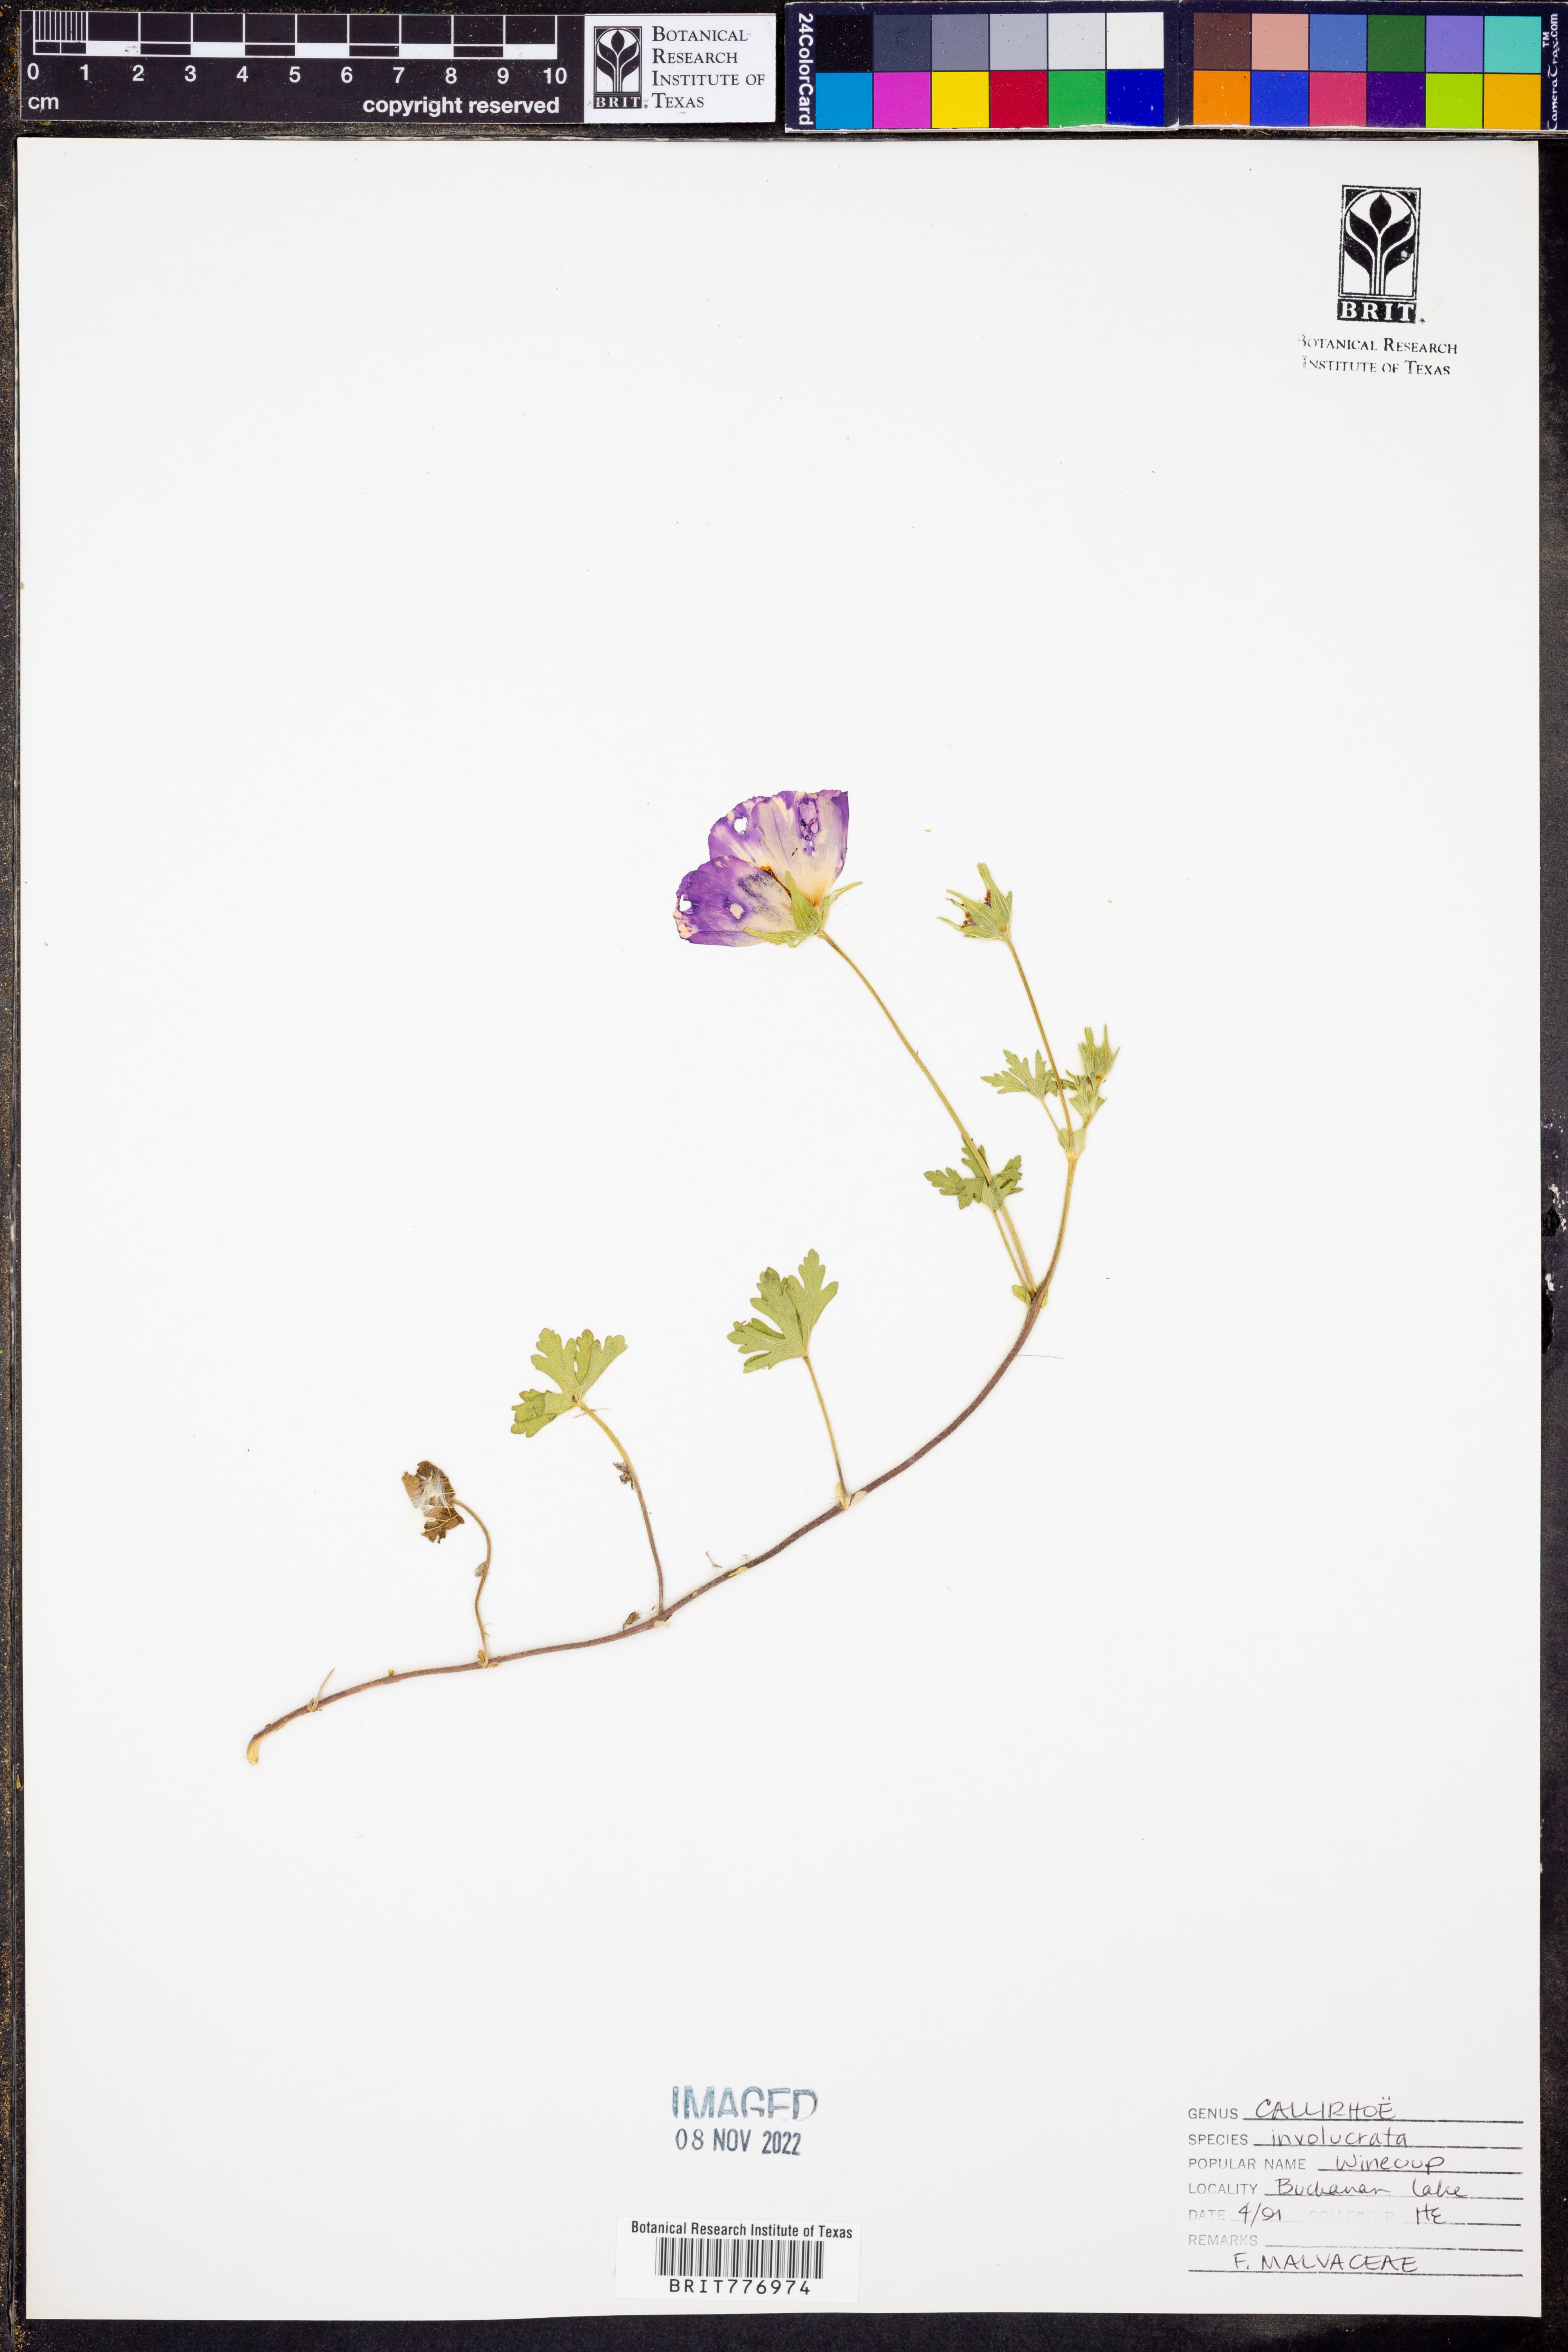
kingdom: Plantae
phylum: Tracheophyta
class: Magnoliopsida
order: Malvales
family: Malvaceae
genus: Callirhoe
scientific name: Callirhoe involucrata
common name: Purple poppy-mallow
